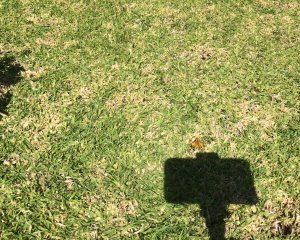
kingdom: Animalia
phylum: Arthropoda
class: Insecta
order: Lepidoptera
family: Hesperiidae
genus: Hylephila
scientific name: Hylephila phyleus
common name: Fiery Skipper
